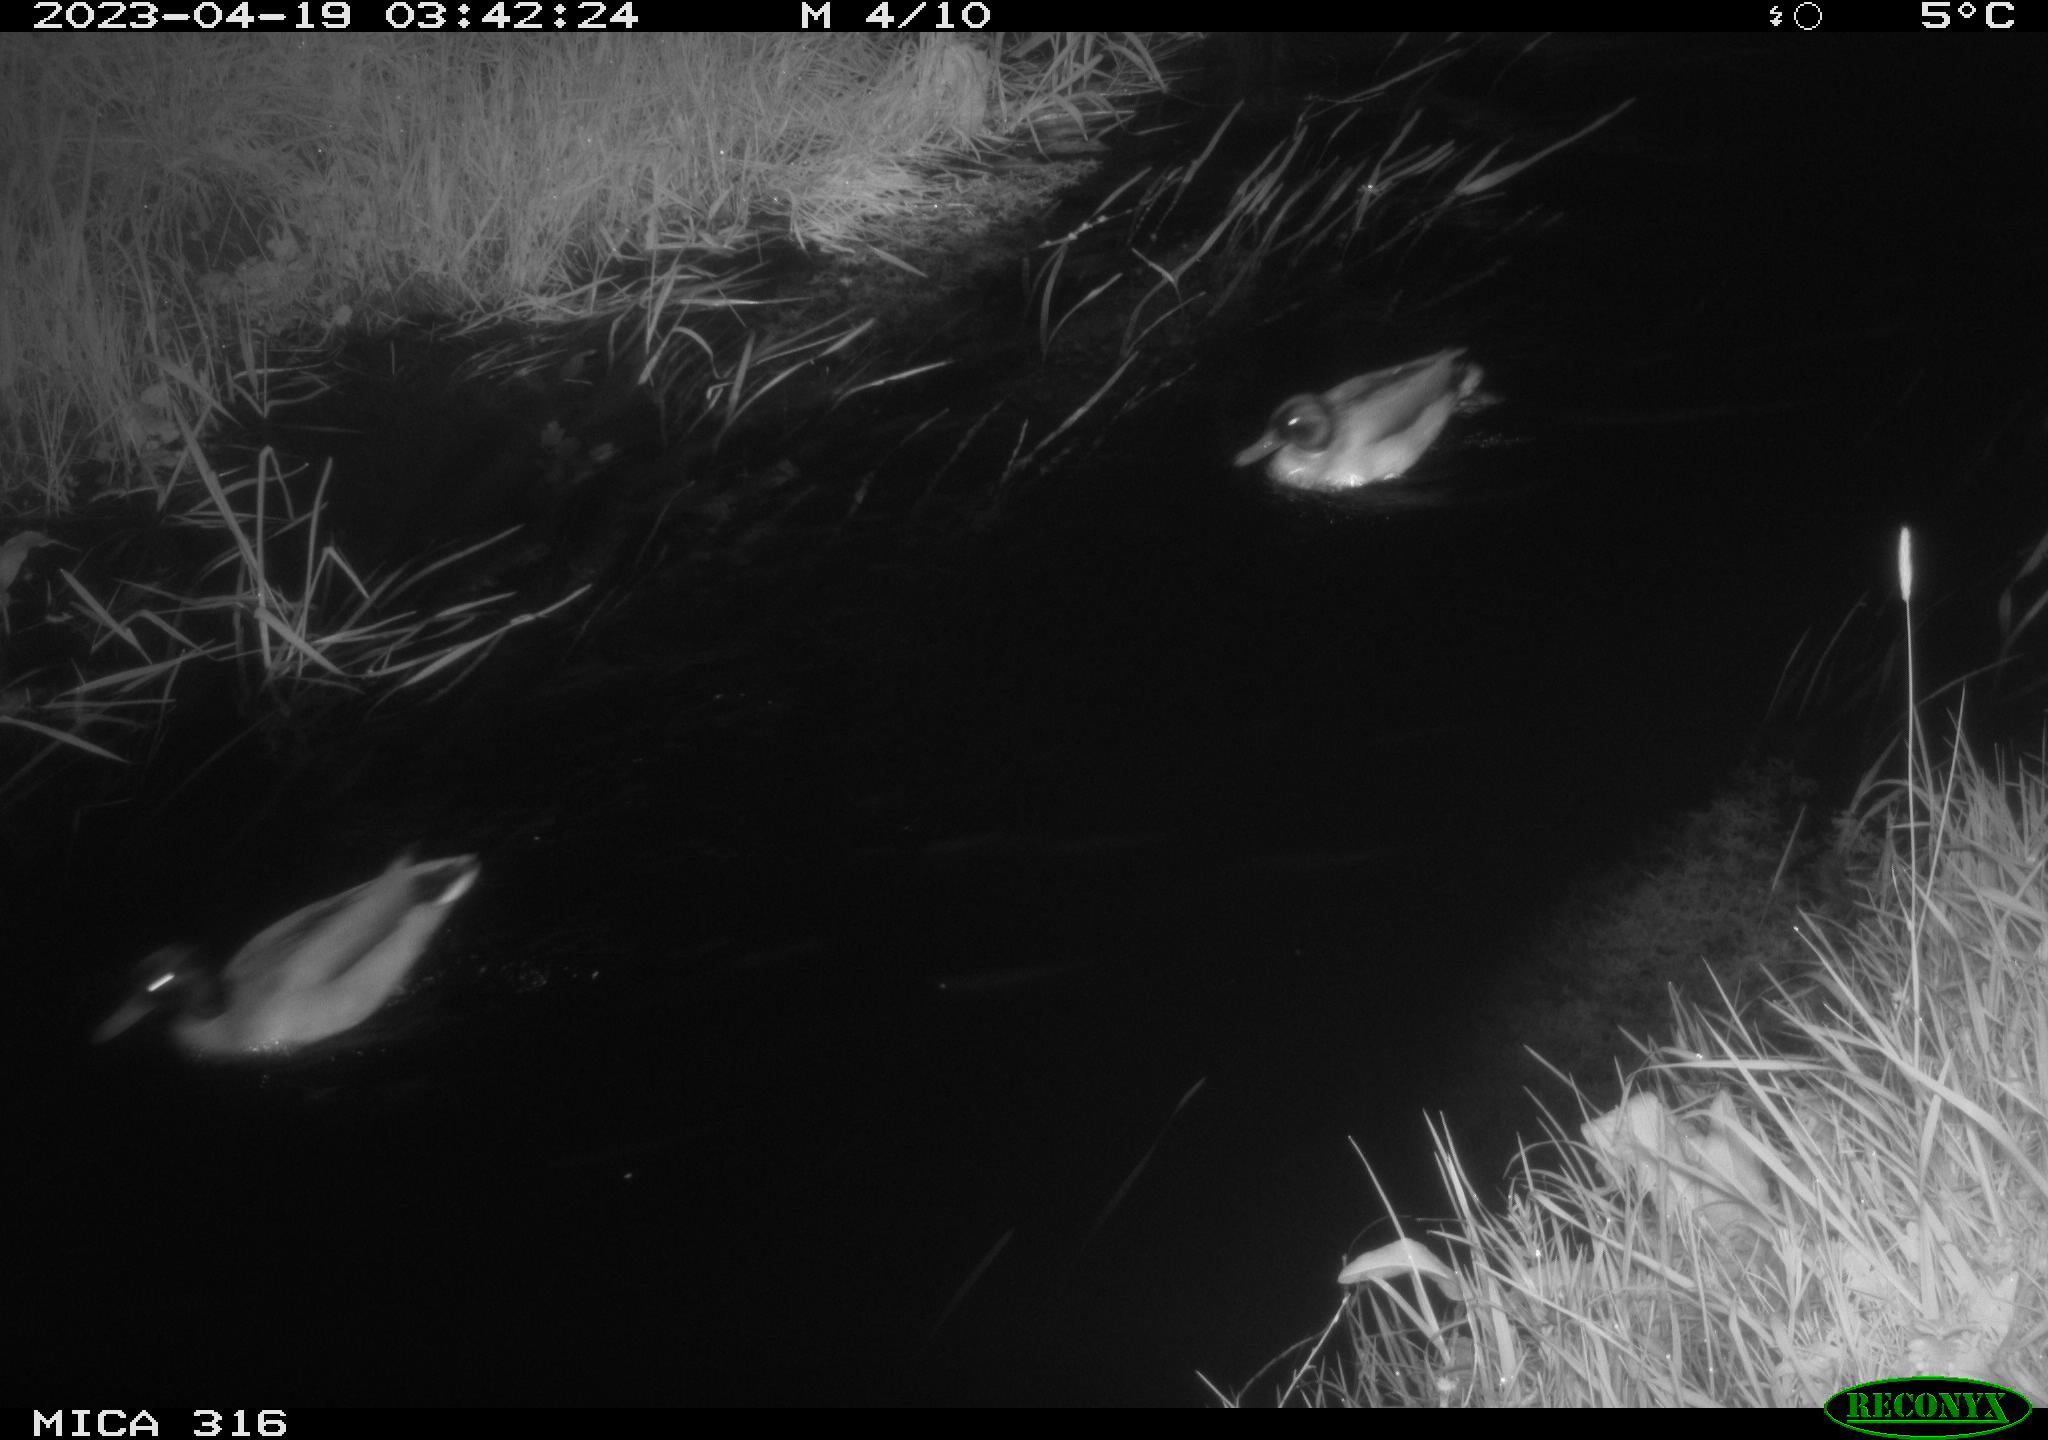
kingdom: Animalia
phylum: Chordata
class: Aves
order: Anseriformes
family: Anatidae
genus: Anas
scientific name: Anas
